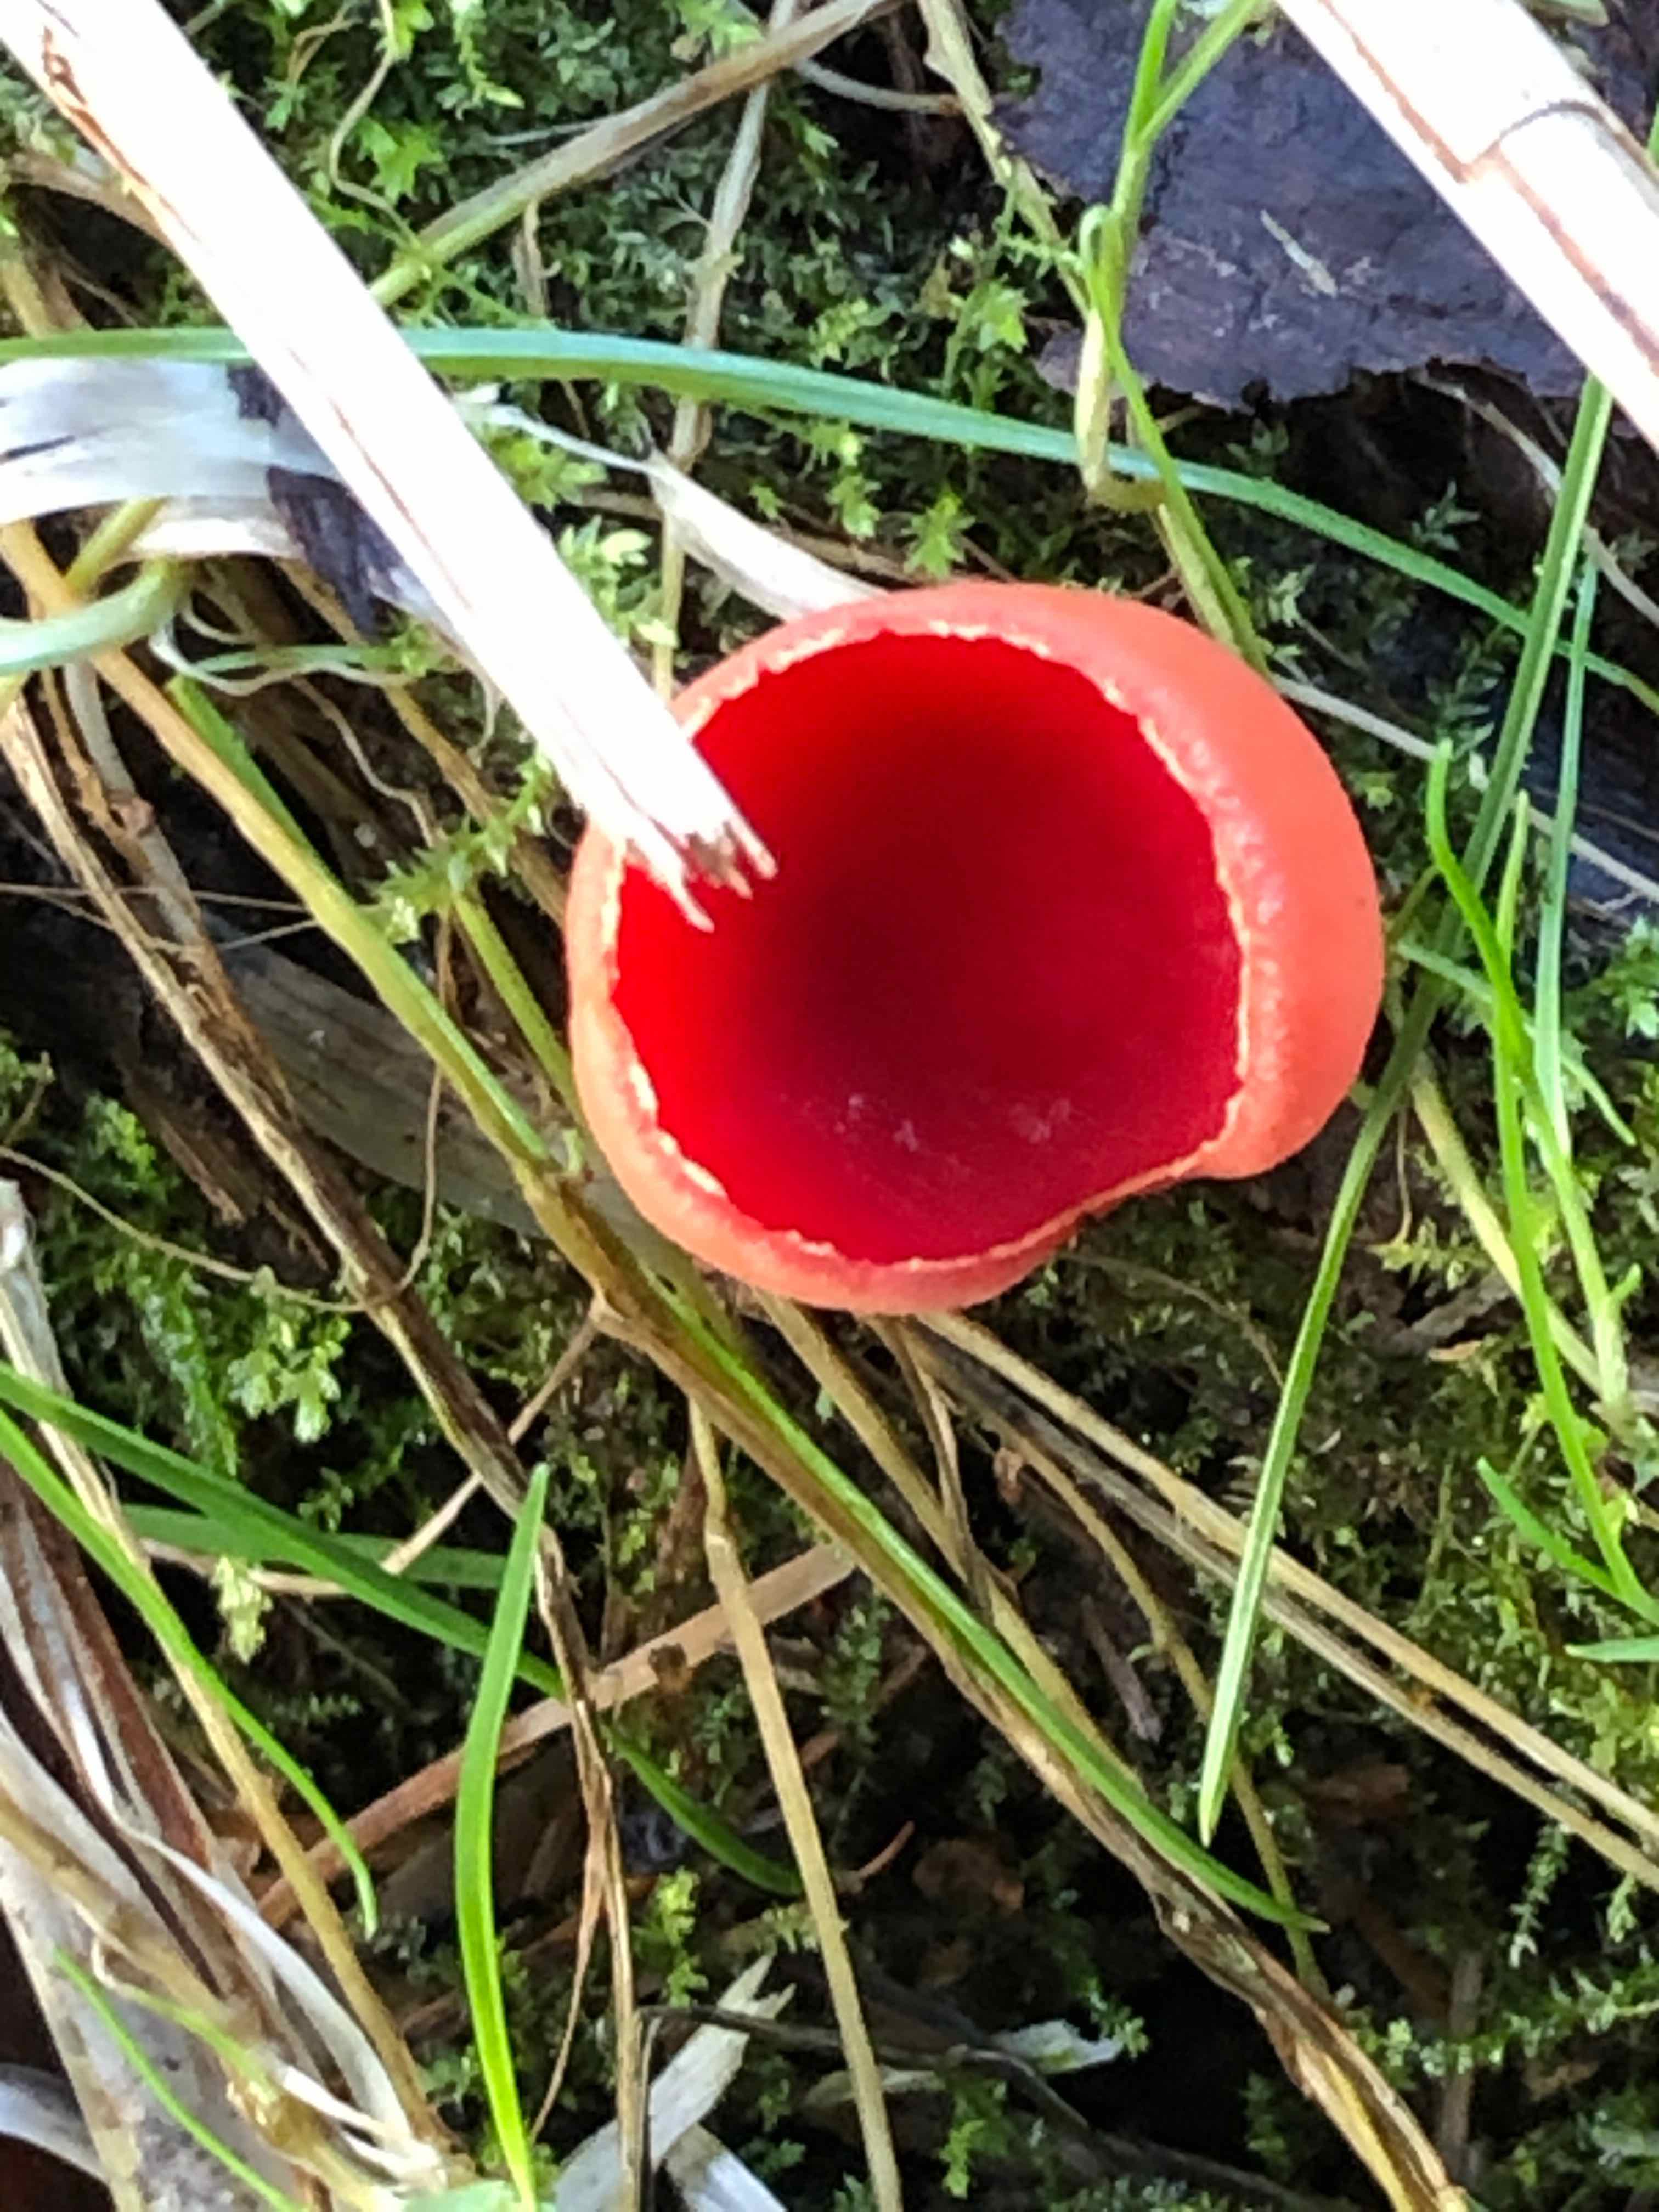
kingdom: Fungi
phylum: Ascomycota
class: Pezizomycetes
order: Pezizales
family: Sarcoscyphaceae
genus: Sarcoscypha
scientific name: Sarcoscypha austriaca
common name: krølhåret pragtbæger
